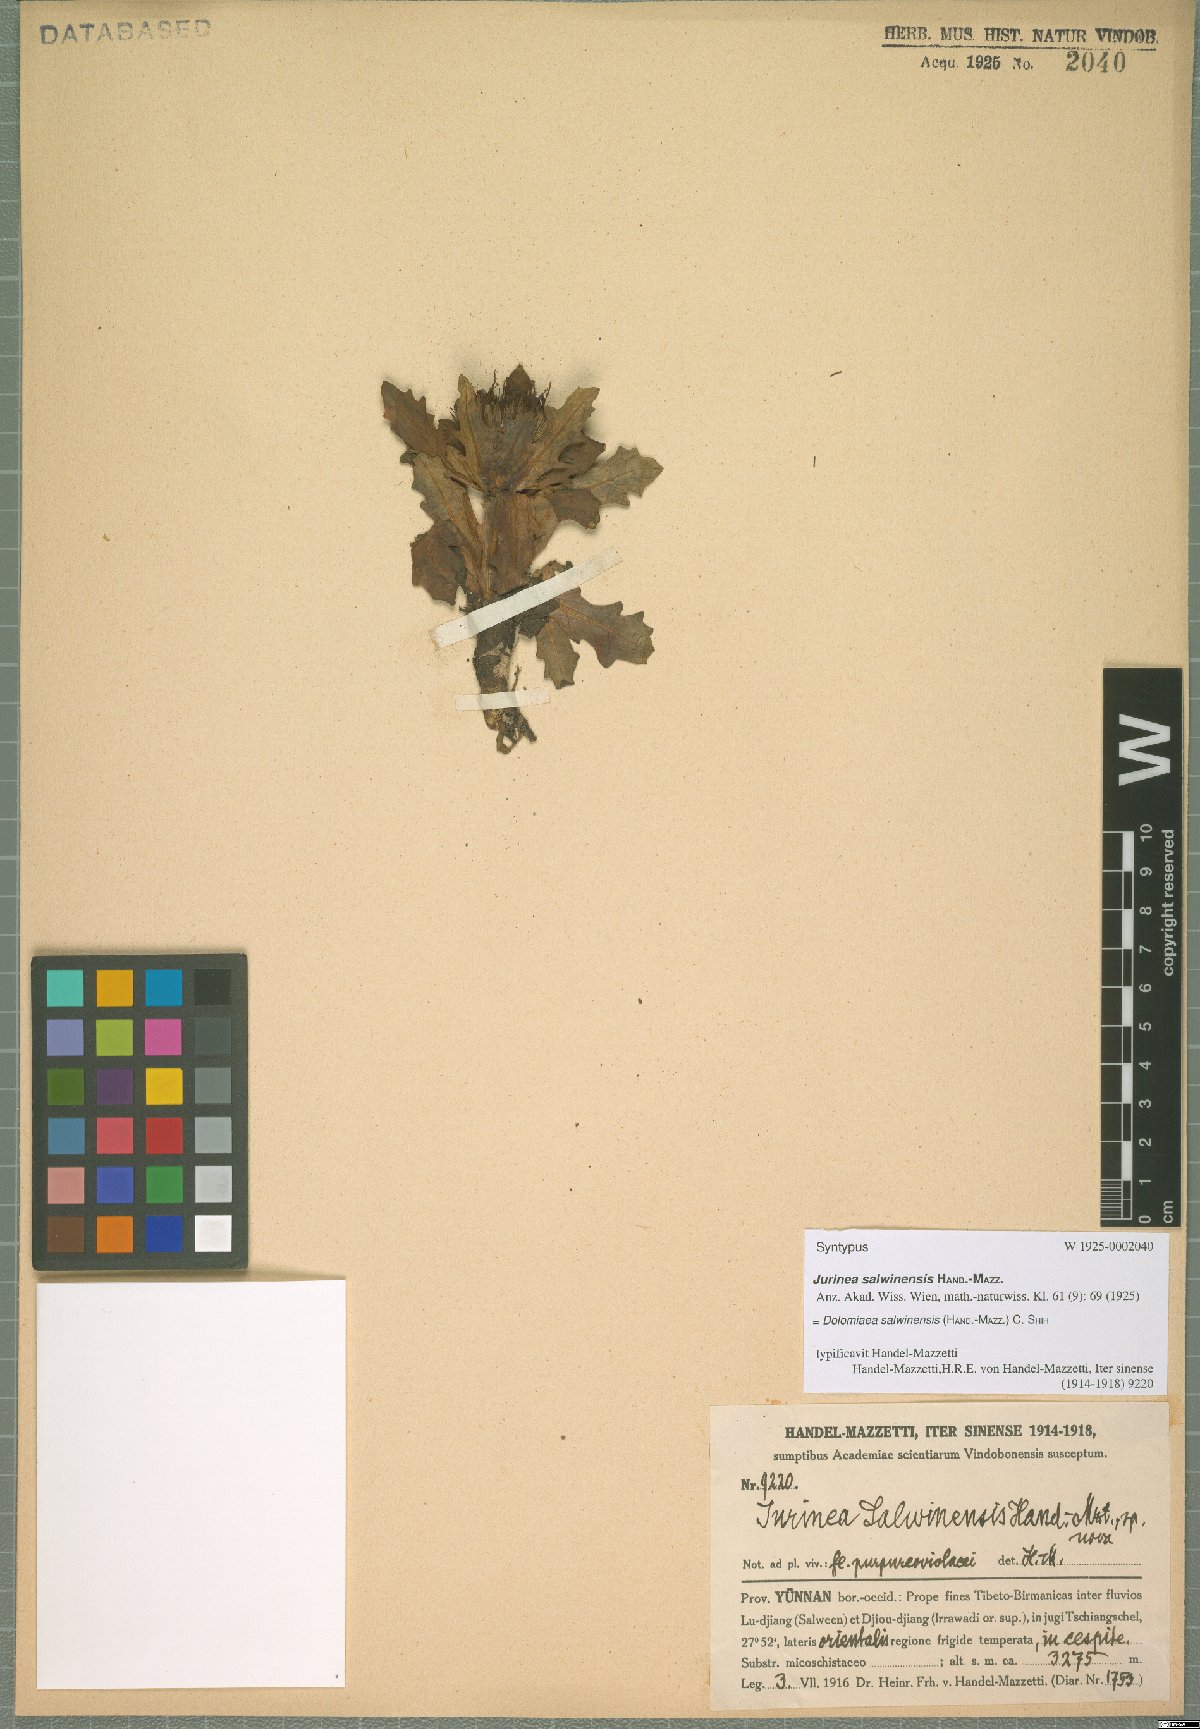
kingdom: Plantae
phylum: Tracheophyta
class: Magnoliopsida
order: Asterales
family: Asteraceae
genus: Dolomiaea
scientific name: Dolomiaea salwinensis
